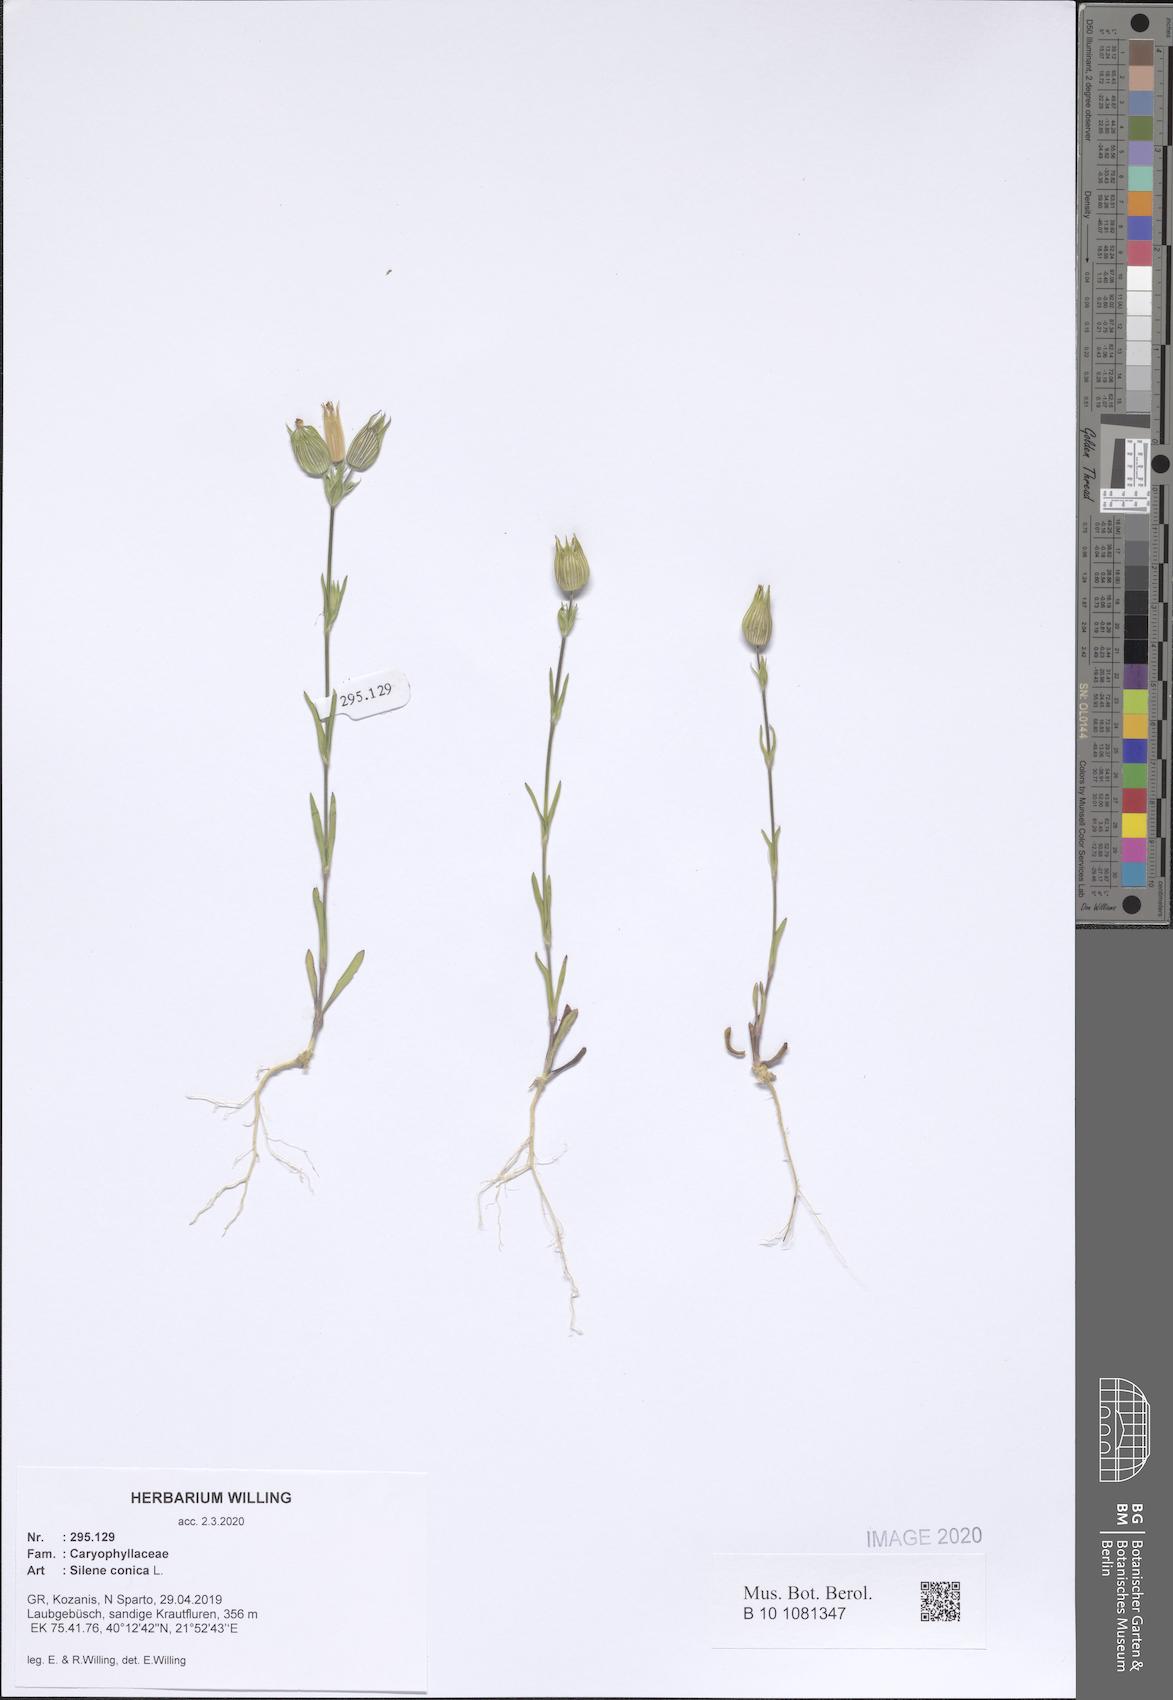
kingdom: Plantae
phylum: Tracheophyta
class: Magnoliopsida
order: Caryophyllales
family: Caryophyllaceae
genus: Silene
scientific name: Silene conica
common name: Sand catchfly
